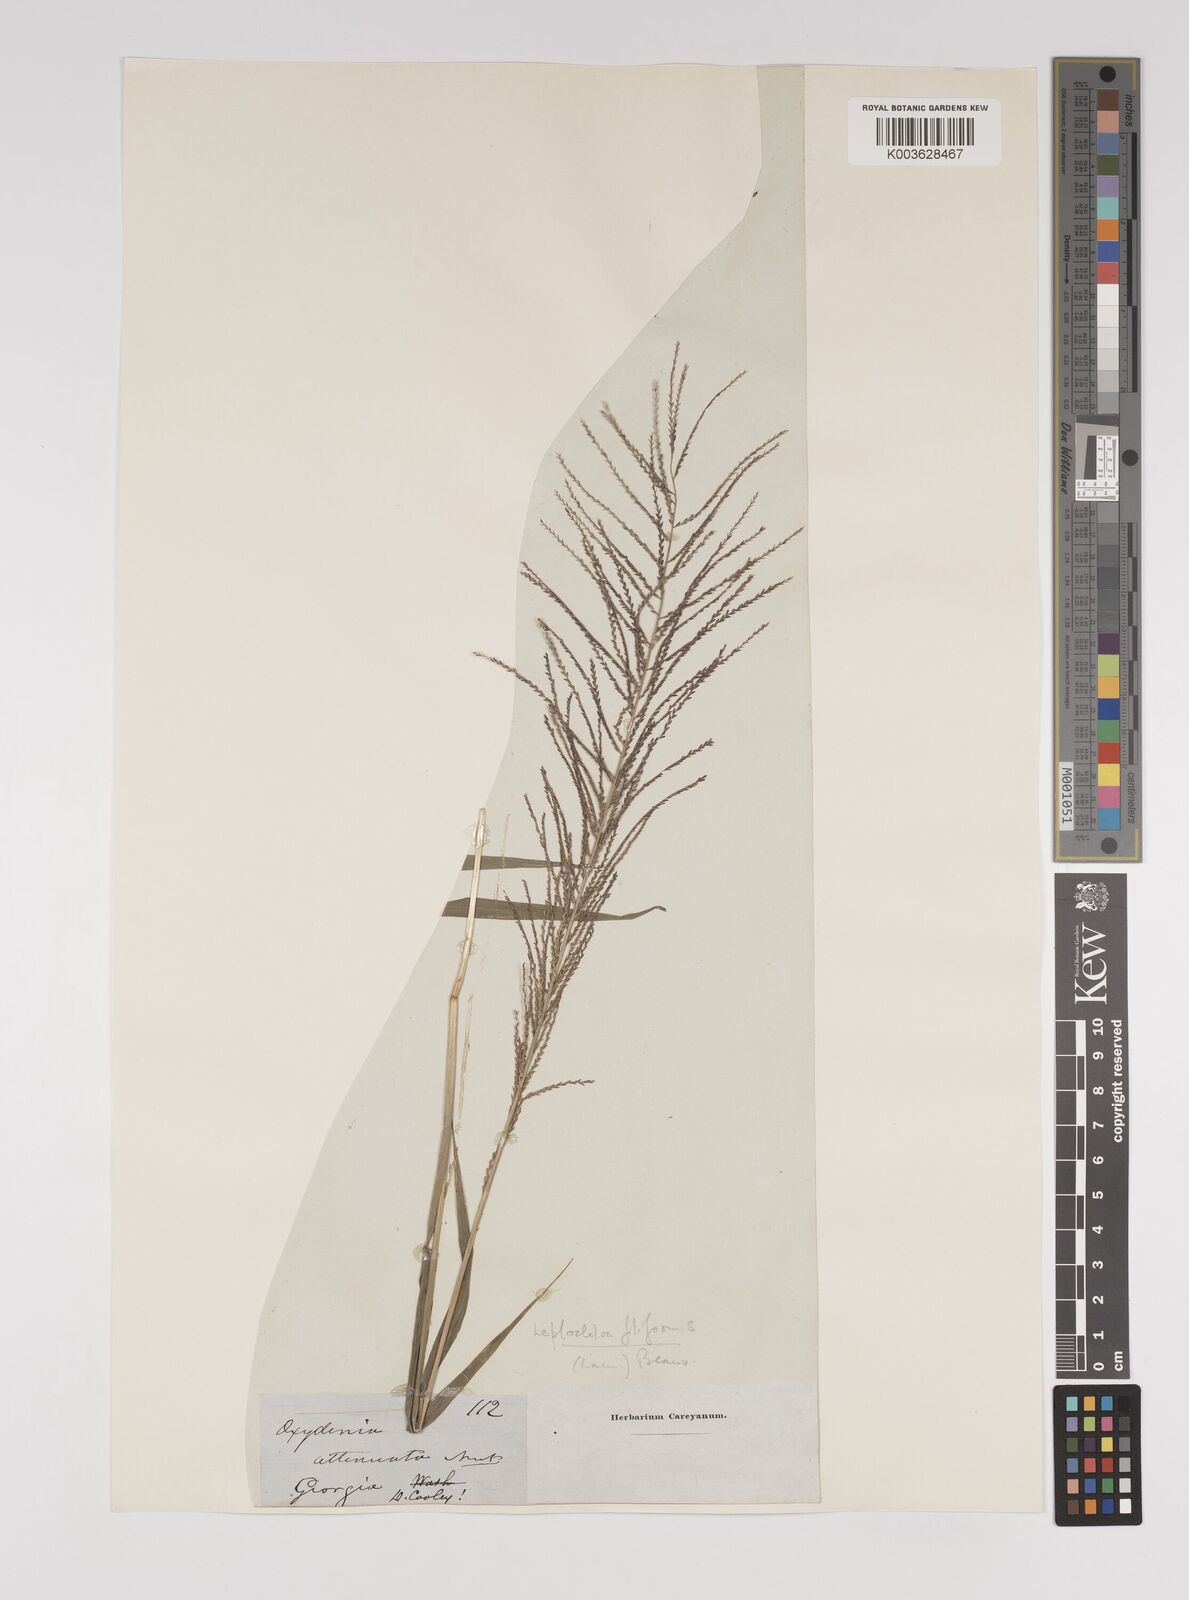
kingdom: Plantae
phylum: Tracheophyta
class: Liliopsida
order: Poales
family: Poaceae
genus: Leptochloa
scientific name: Leptochloa panicea
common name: Mucronate sprangletop
